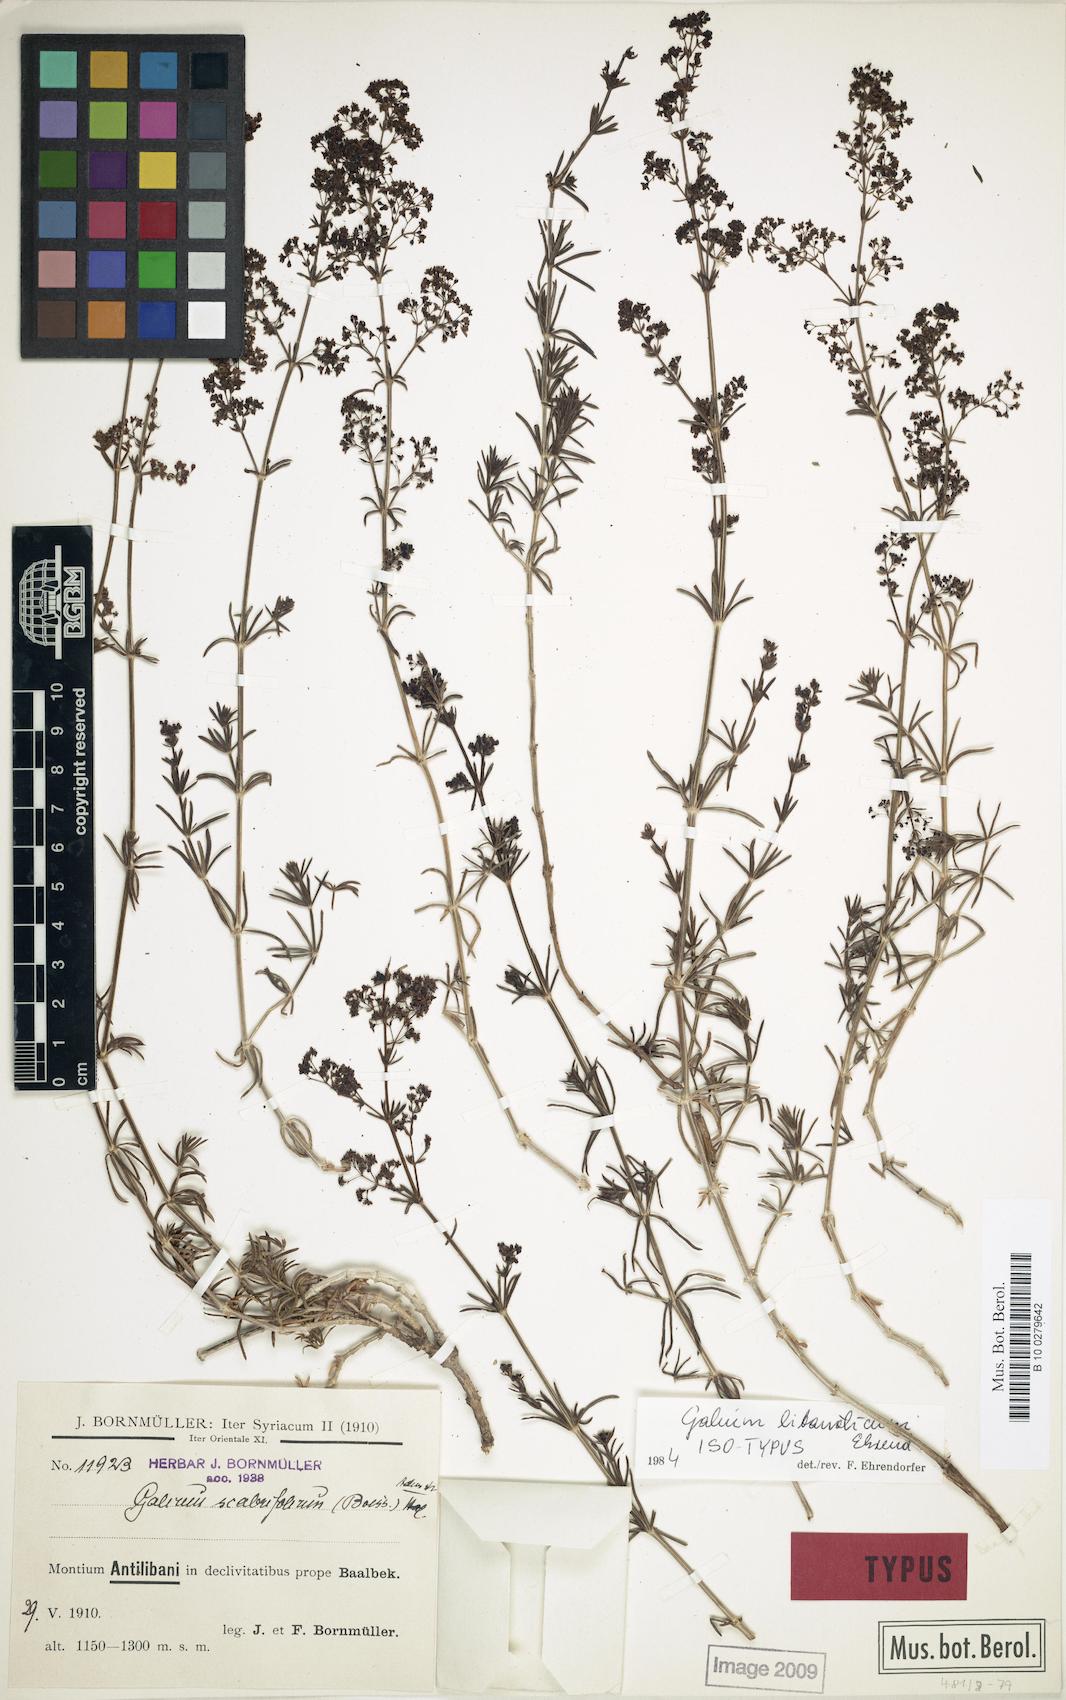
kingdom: Plantae
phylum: Tracheophyta
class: Magnoliopsida
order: Gentianales
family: Rubiaceae
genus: Galium
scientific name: Galium libanoticum
